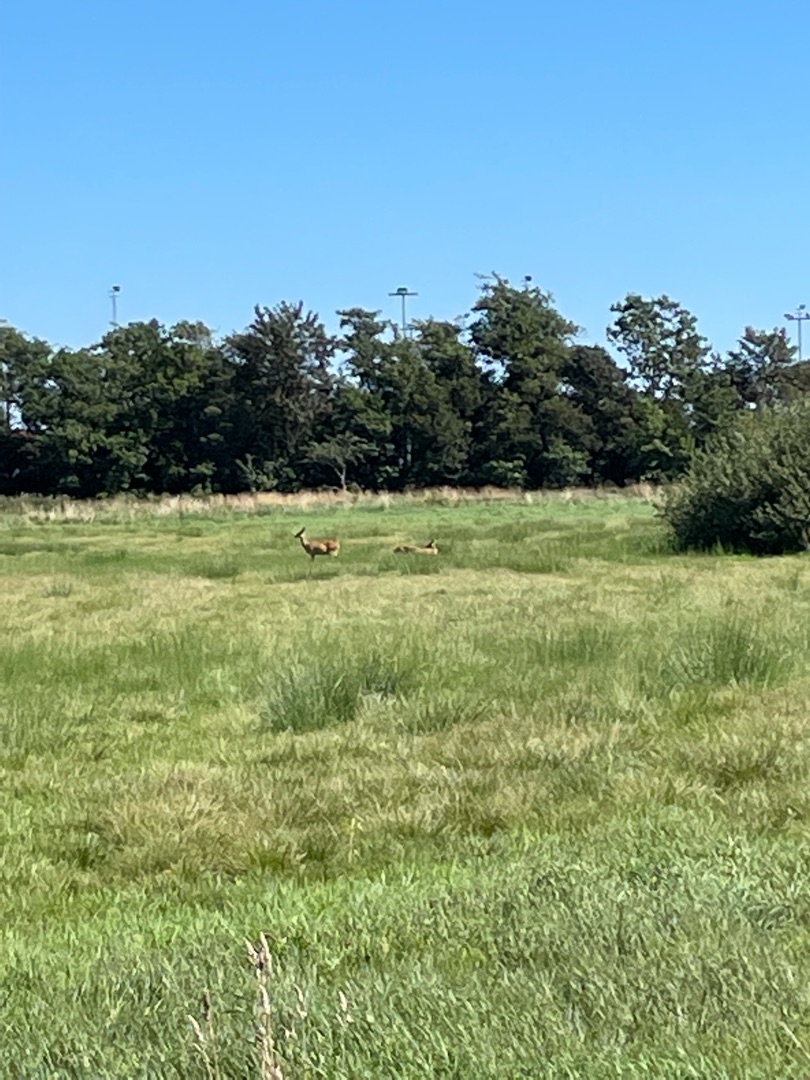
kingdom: Animalia
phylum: Chordata
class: Mammalia
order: Artiodactyla
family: Cervidae
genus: Capreolus
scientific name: Capreolus capreolus
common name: Rådyr
